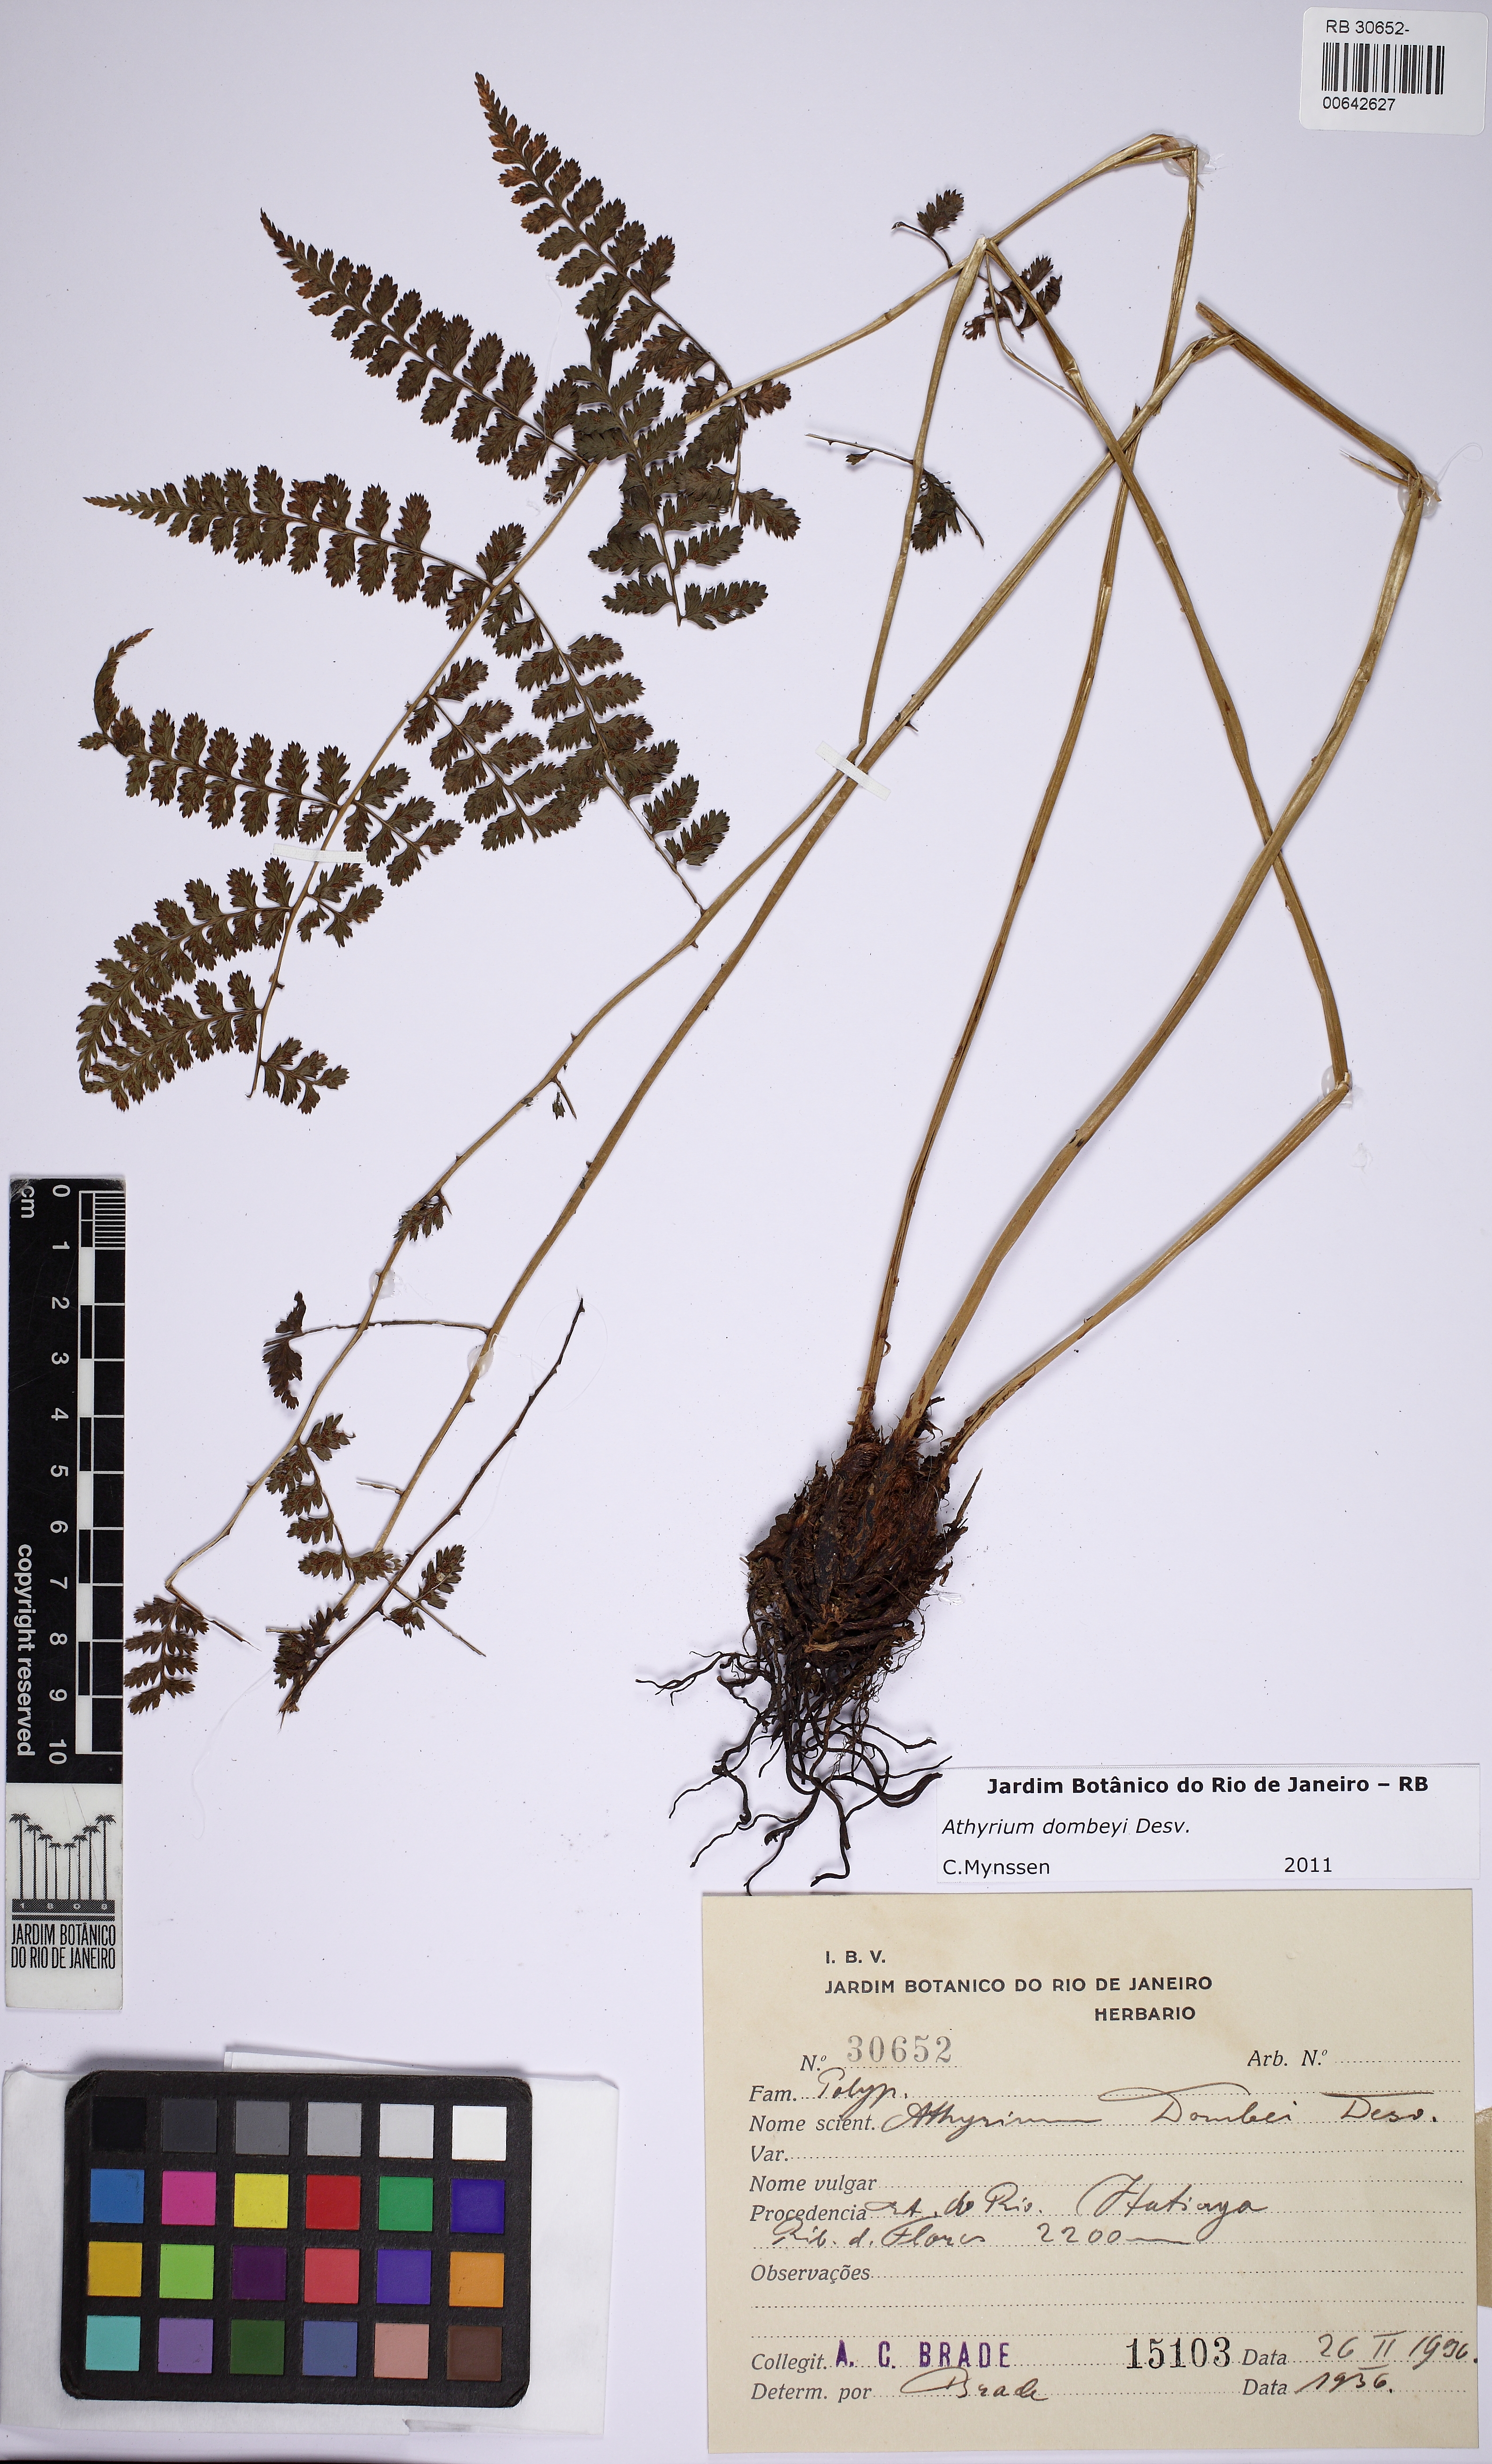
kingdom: Plantae
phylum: Tracheophyta
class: Polypodiopsida
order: Polypodiales
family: Athyriaceae
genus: Athyrium
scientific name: Athyrium dombeyi
